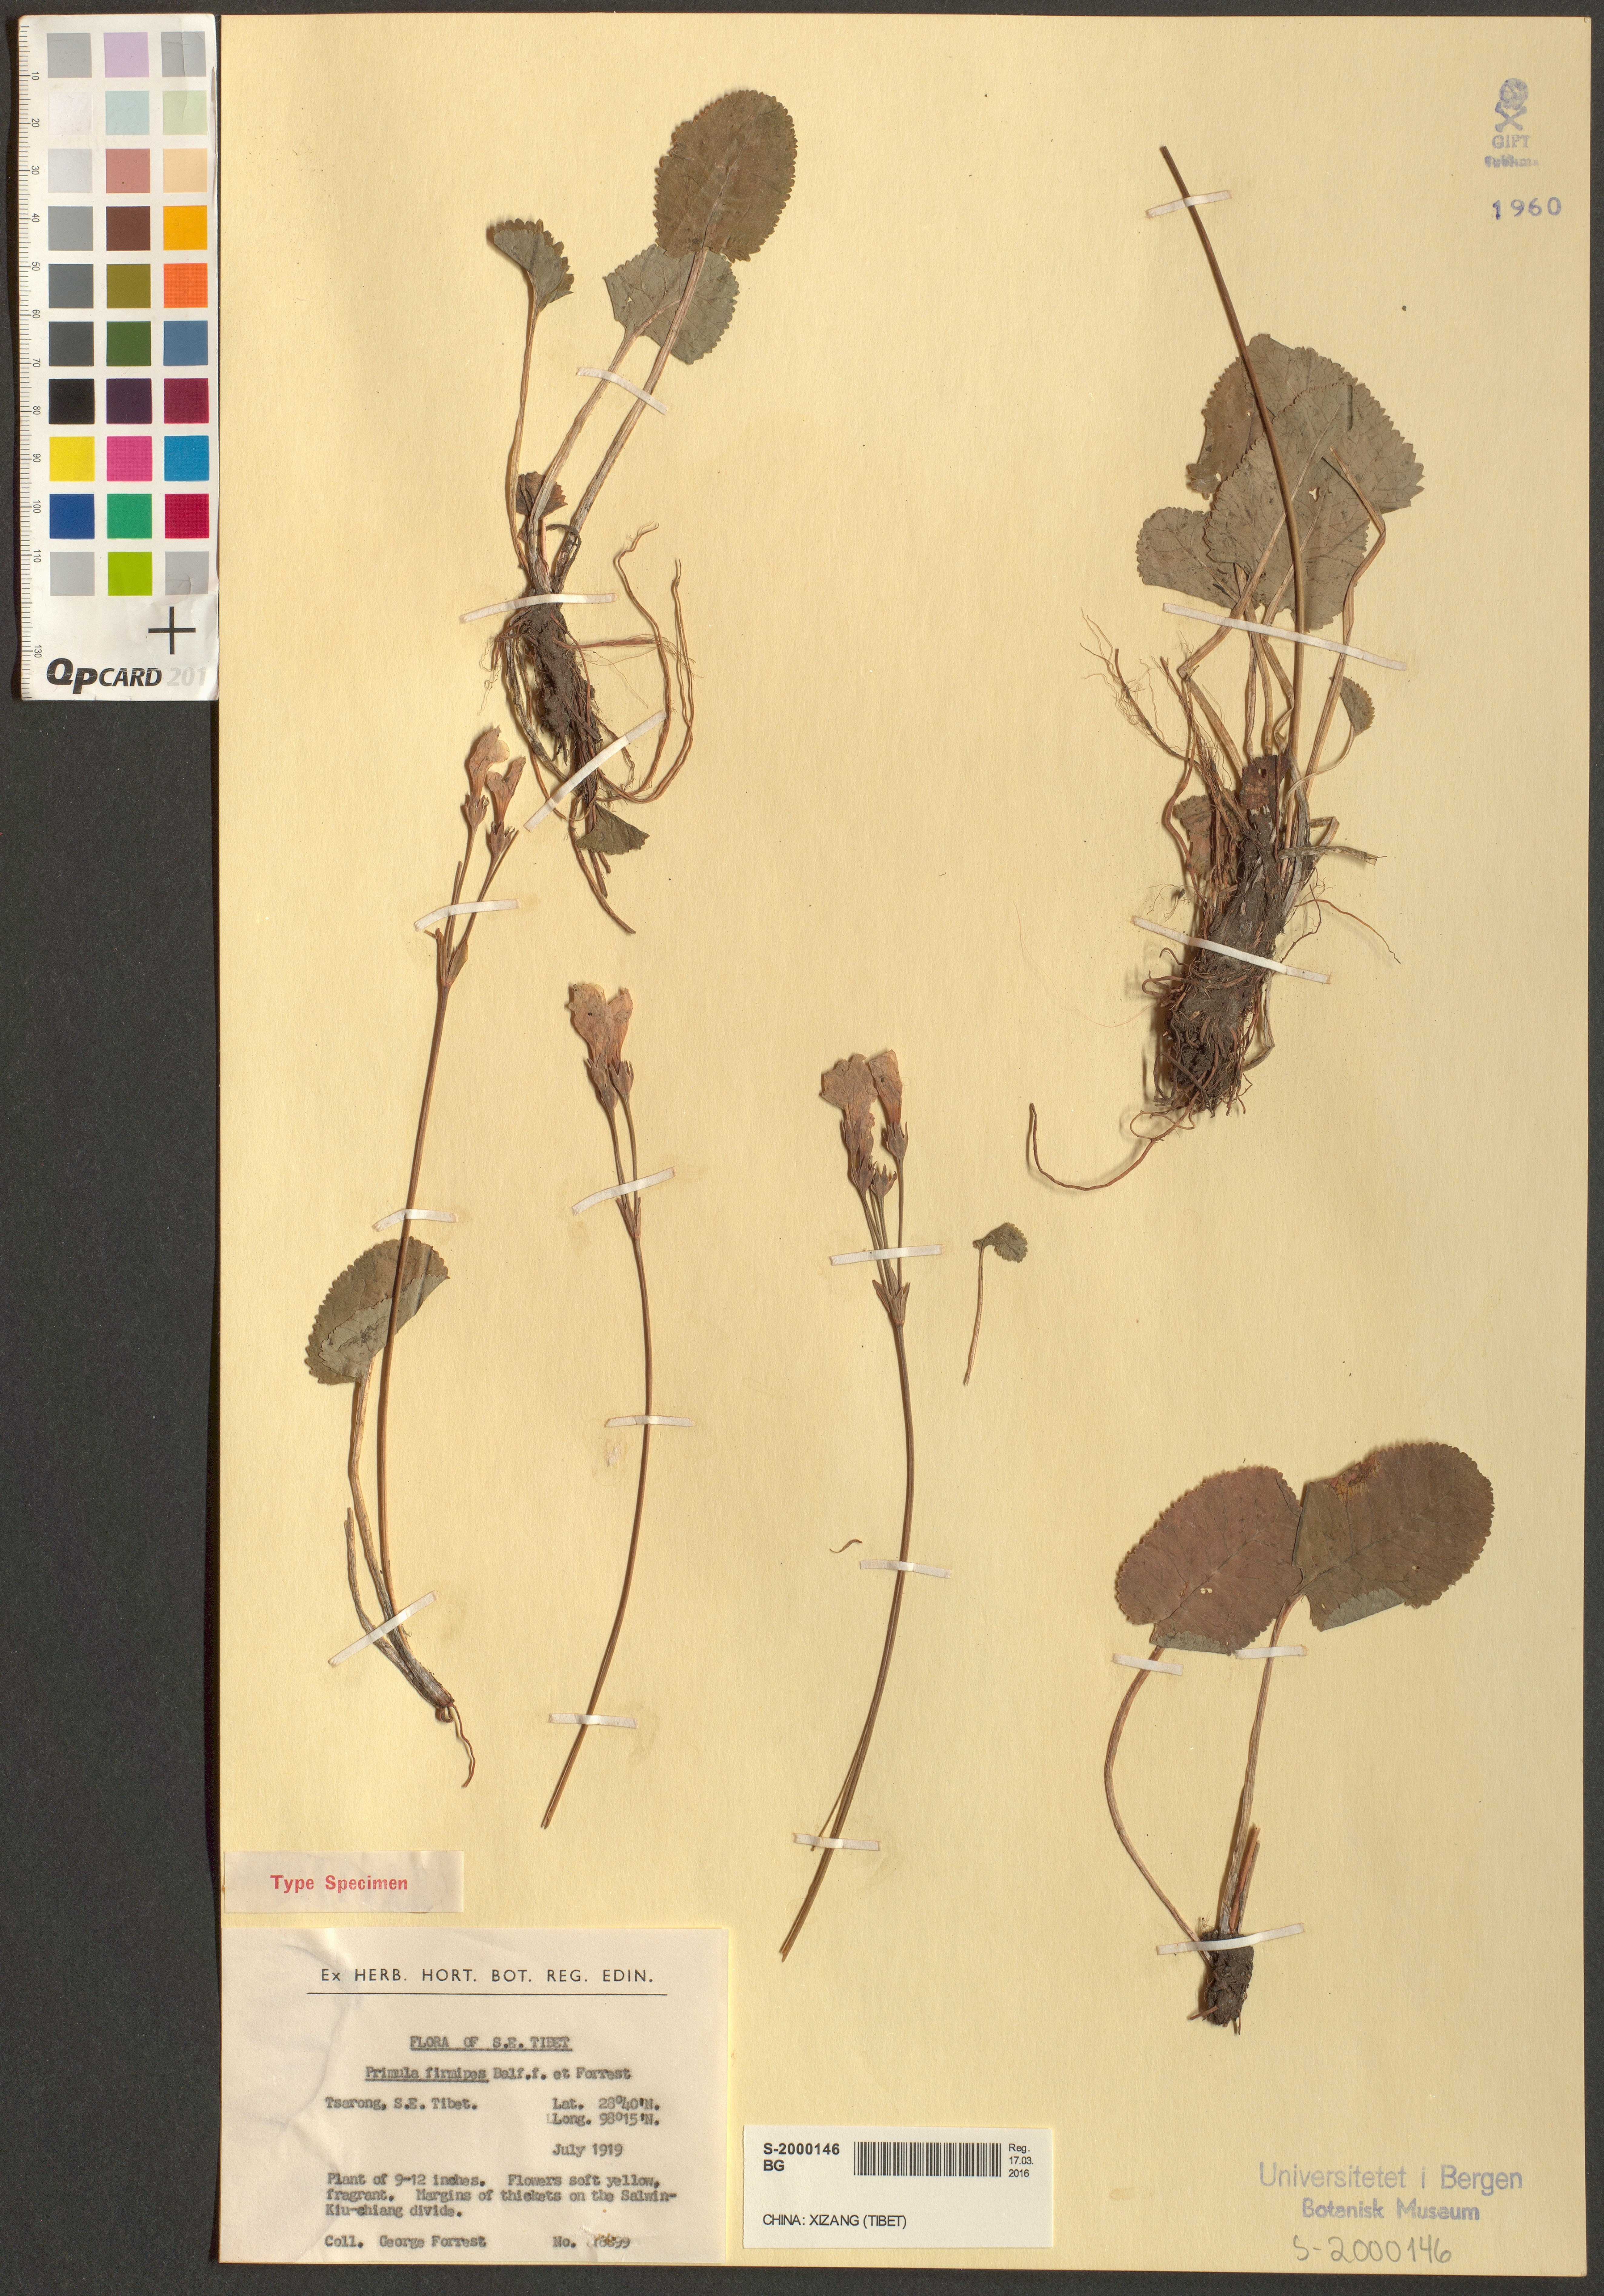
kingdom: Plantae
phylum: Tracheophyta
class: Magnoliopsida
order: Ericales
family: Primulaceae
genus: Primula
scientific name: Primula firmipes
